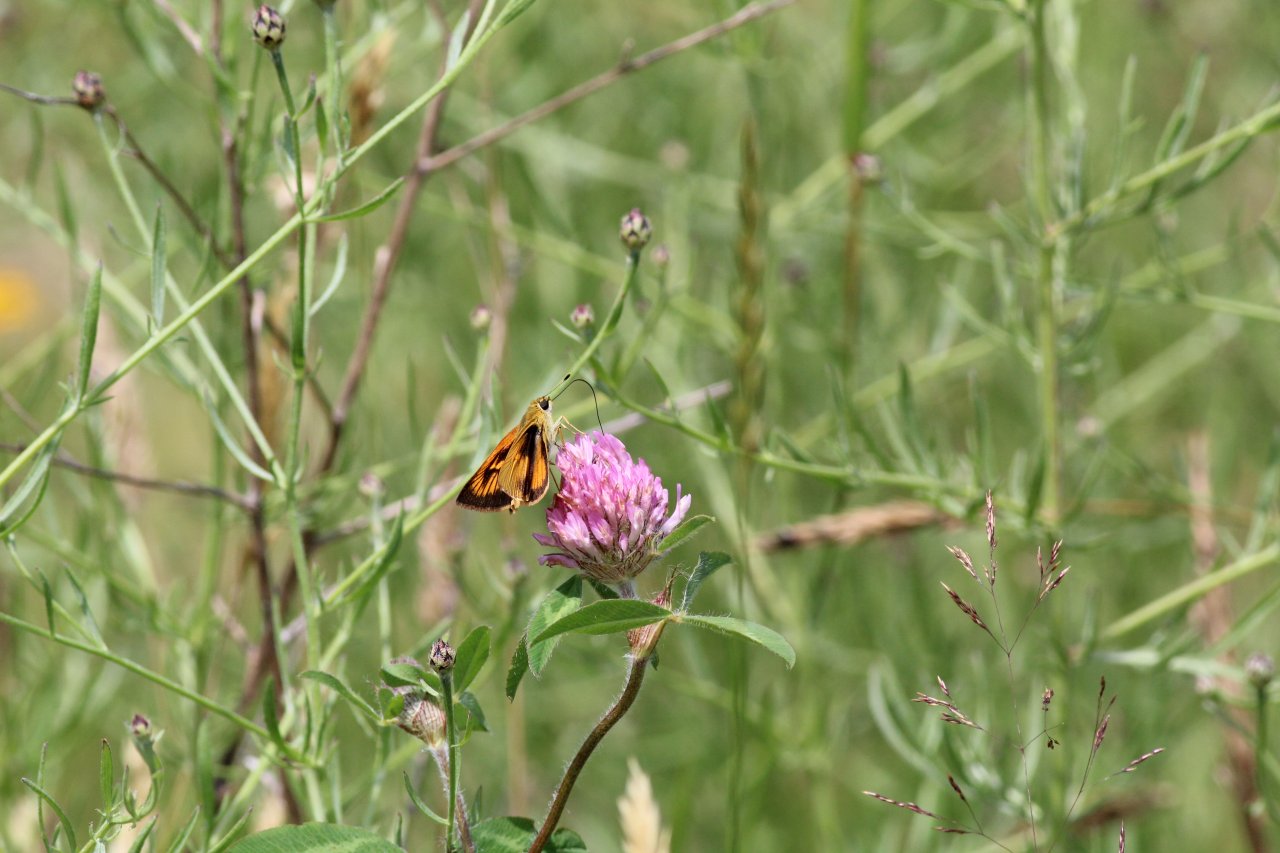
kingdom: Animalia
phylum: Arthropoda
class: Insecta
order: Lepidoptera
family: Hesperiidae
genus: Atrytone
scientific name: Atrytone delaware
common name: Delaware Skipper
